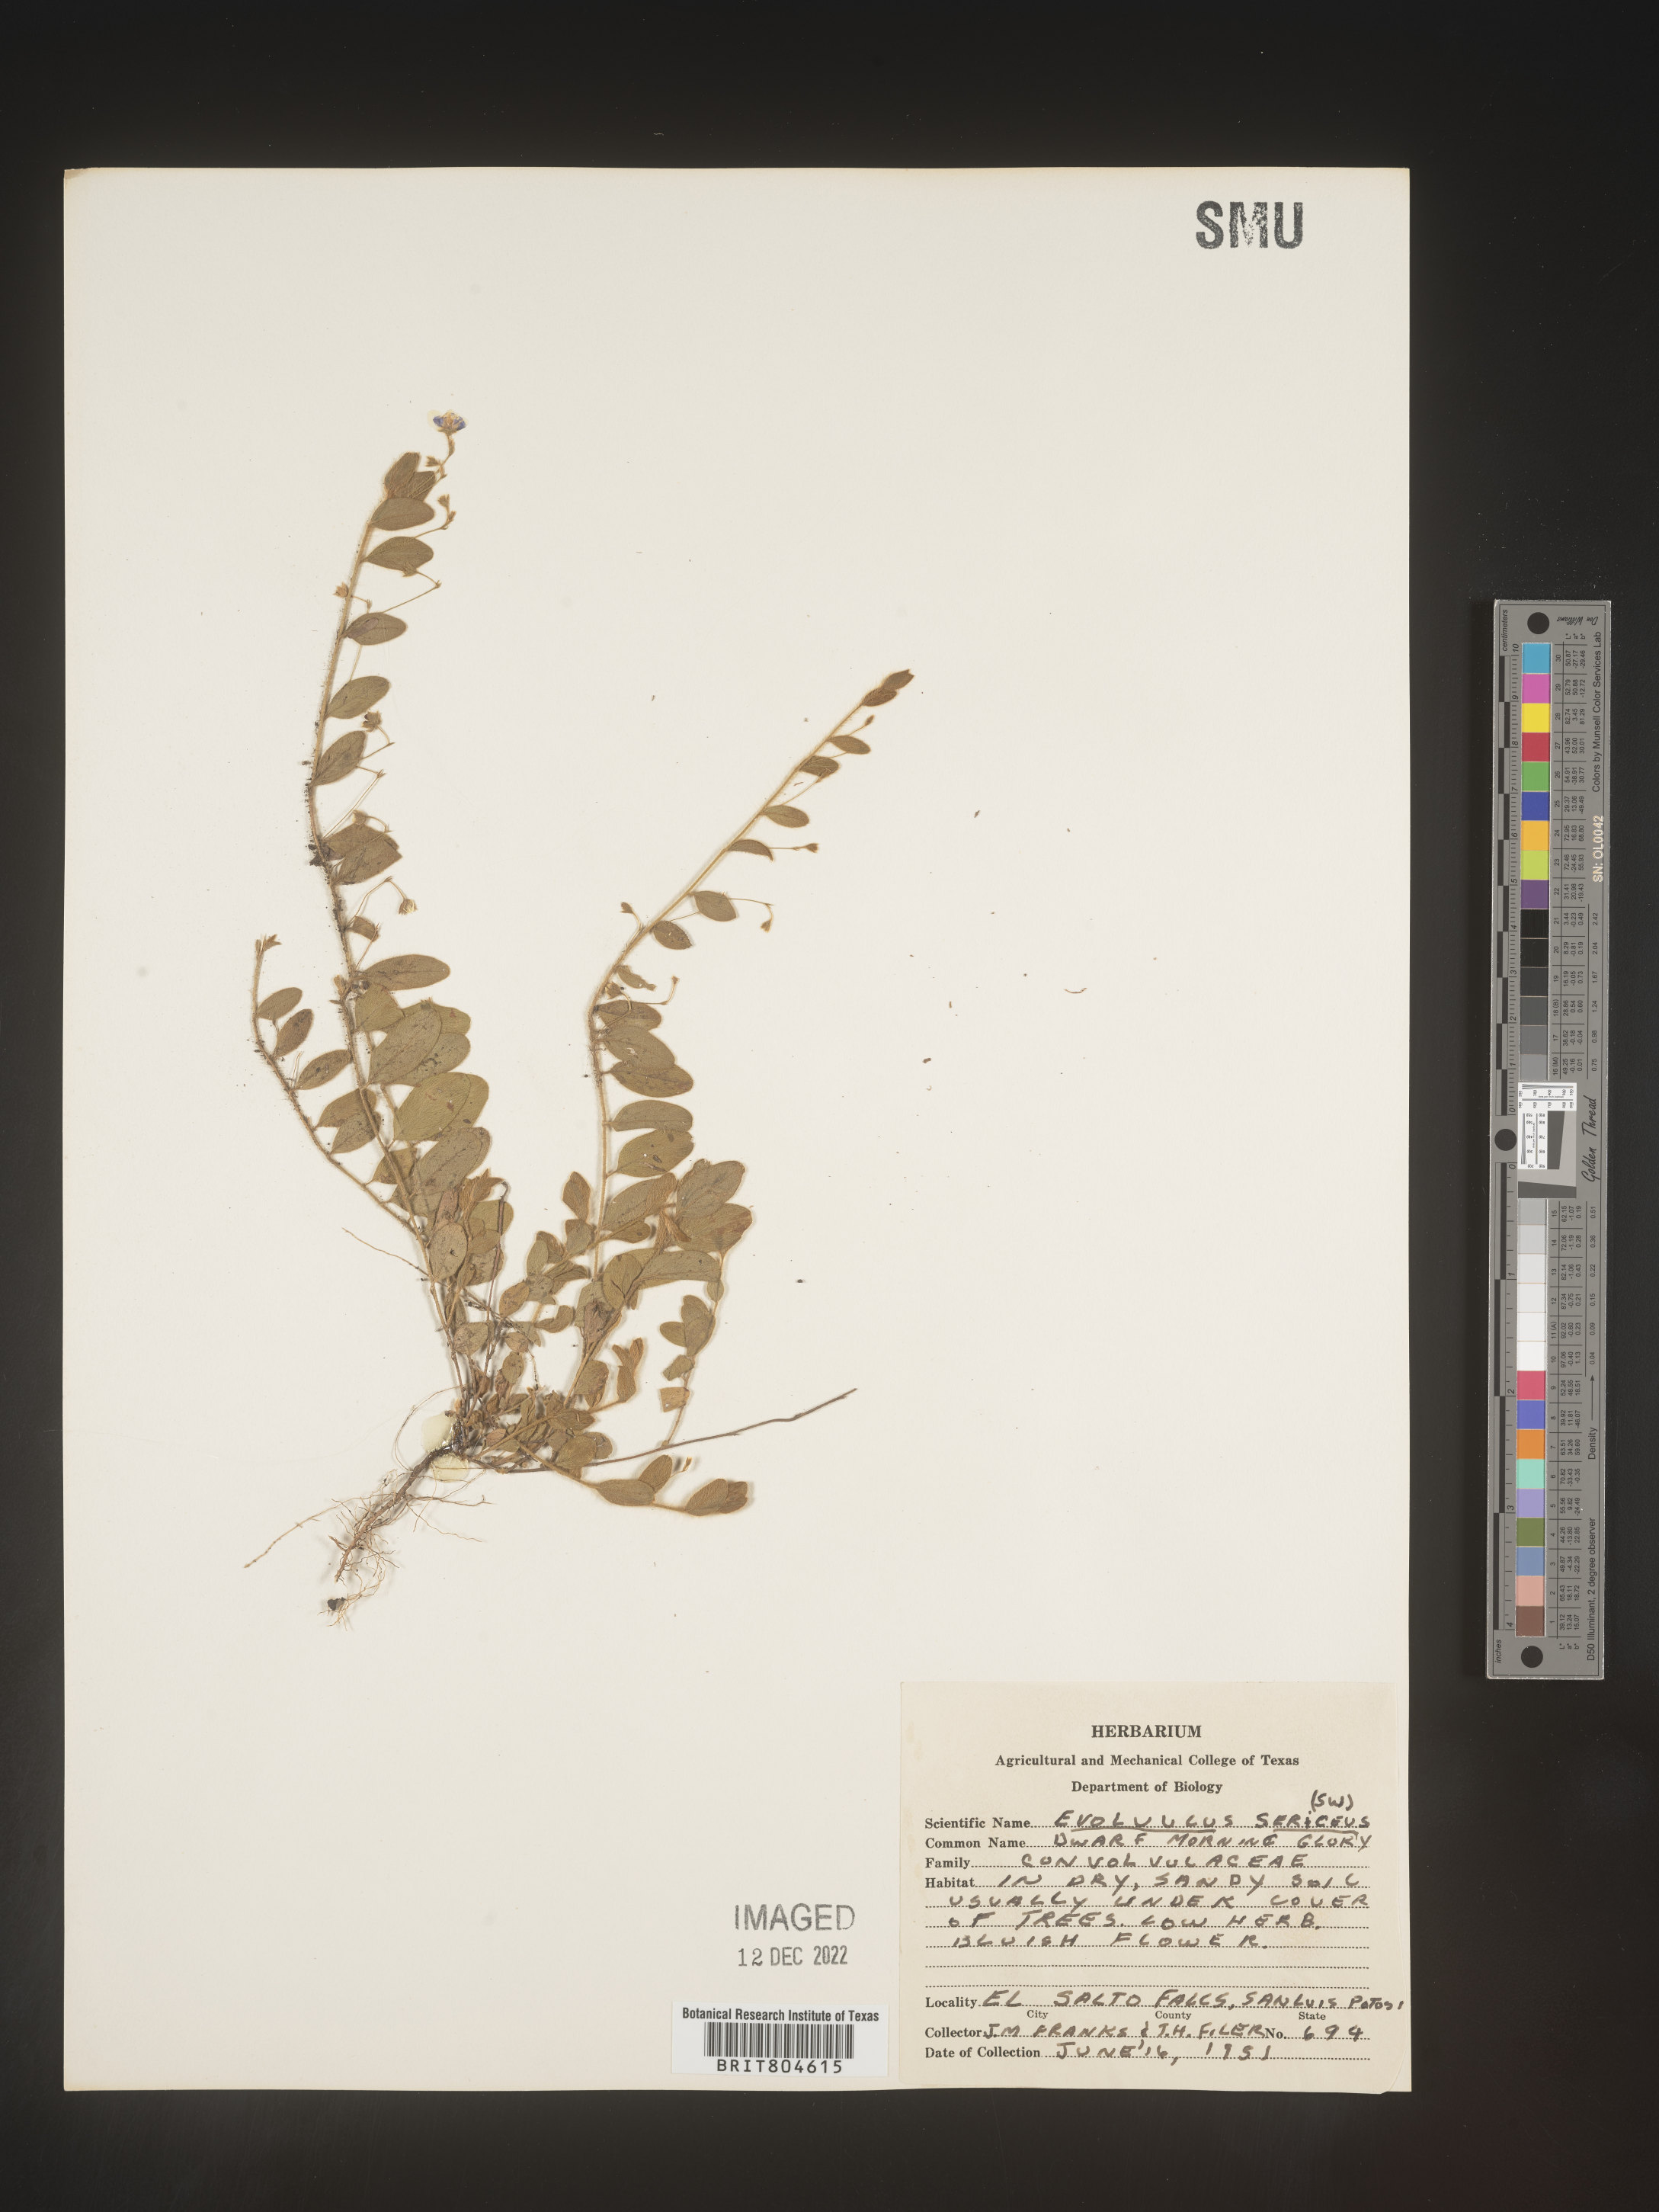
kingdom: Plantae
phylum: Tracheophyta
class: Magnoliopsida
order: Solanales
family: Convolvulaceae
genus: Evolvulus
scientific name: Evolvulus
